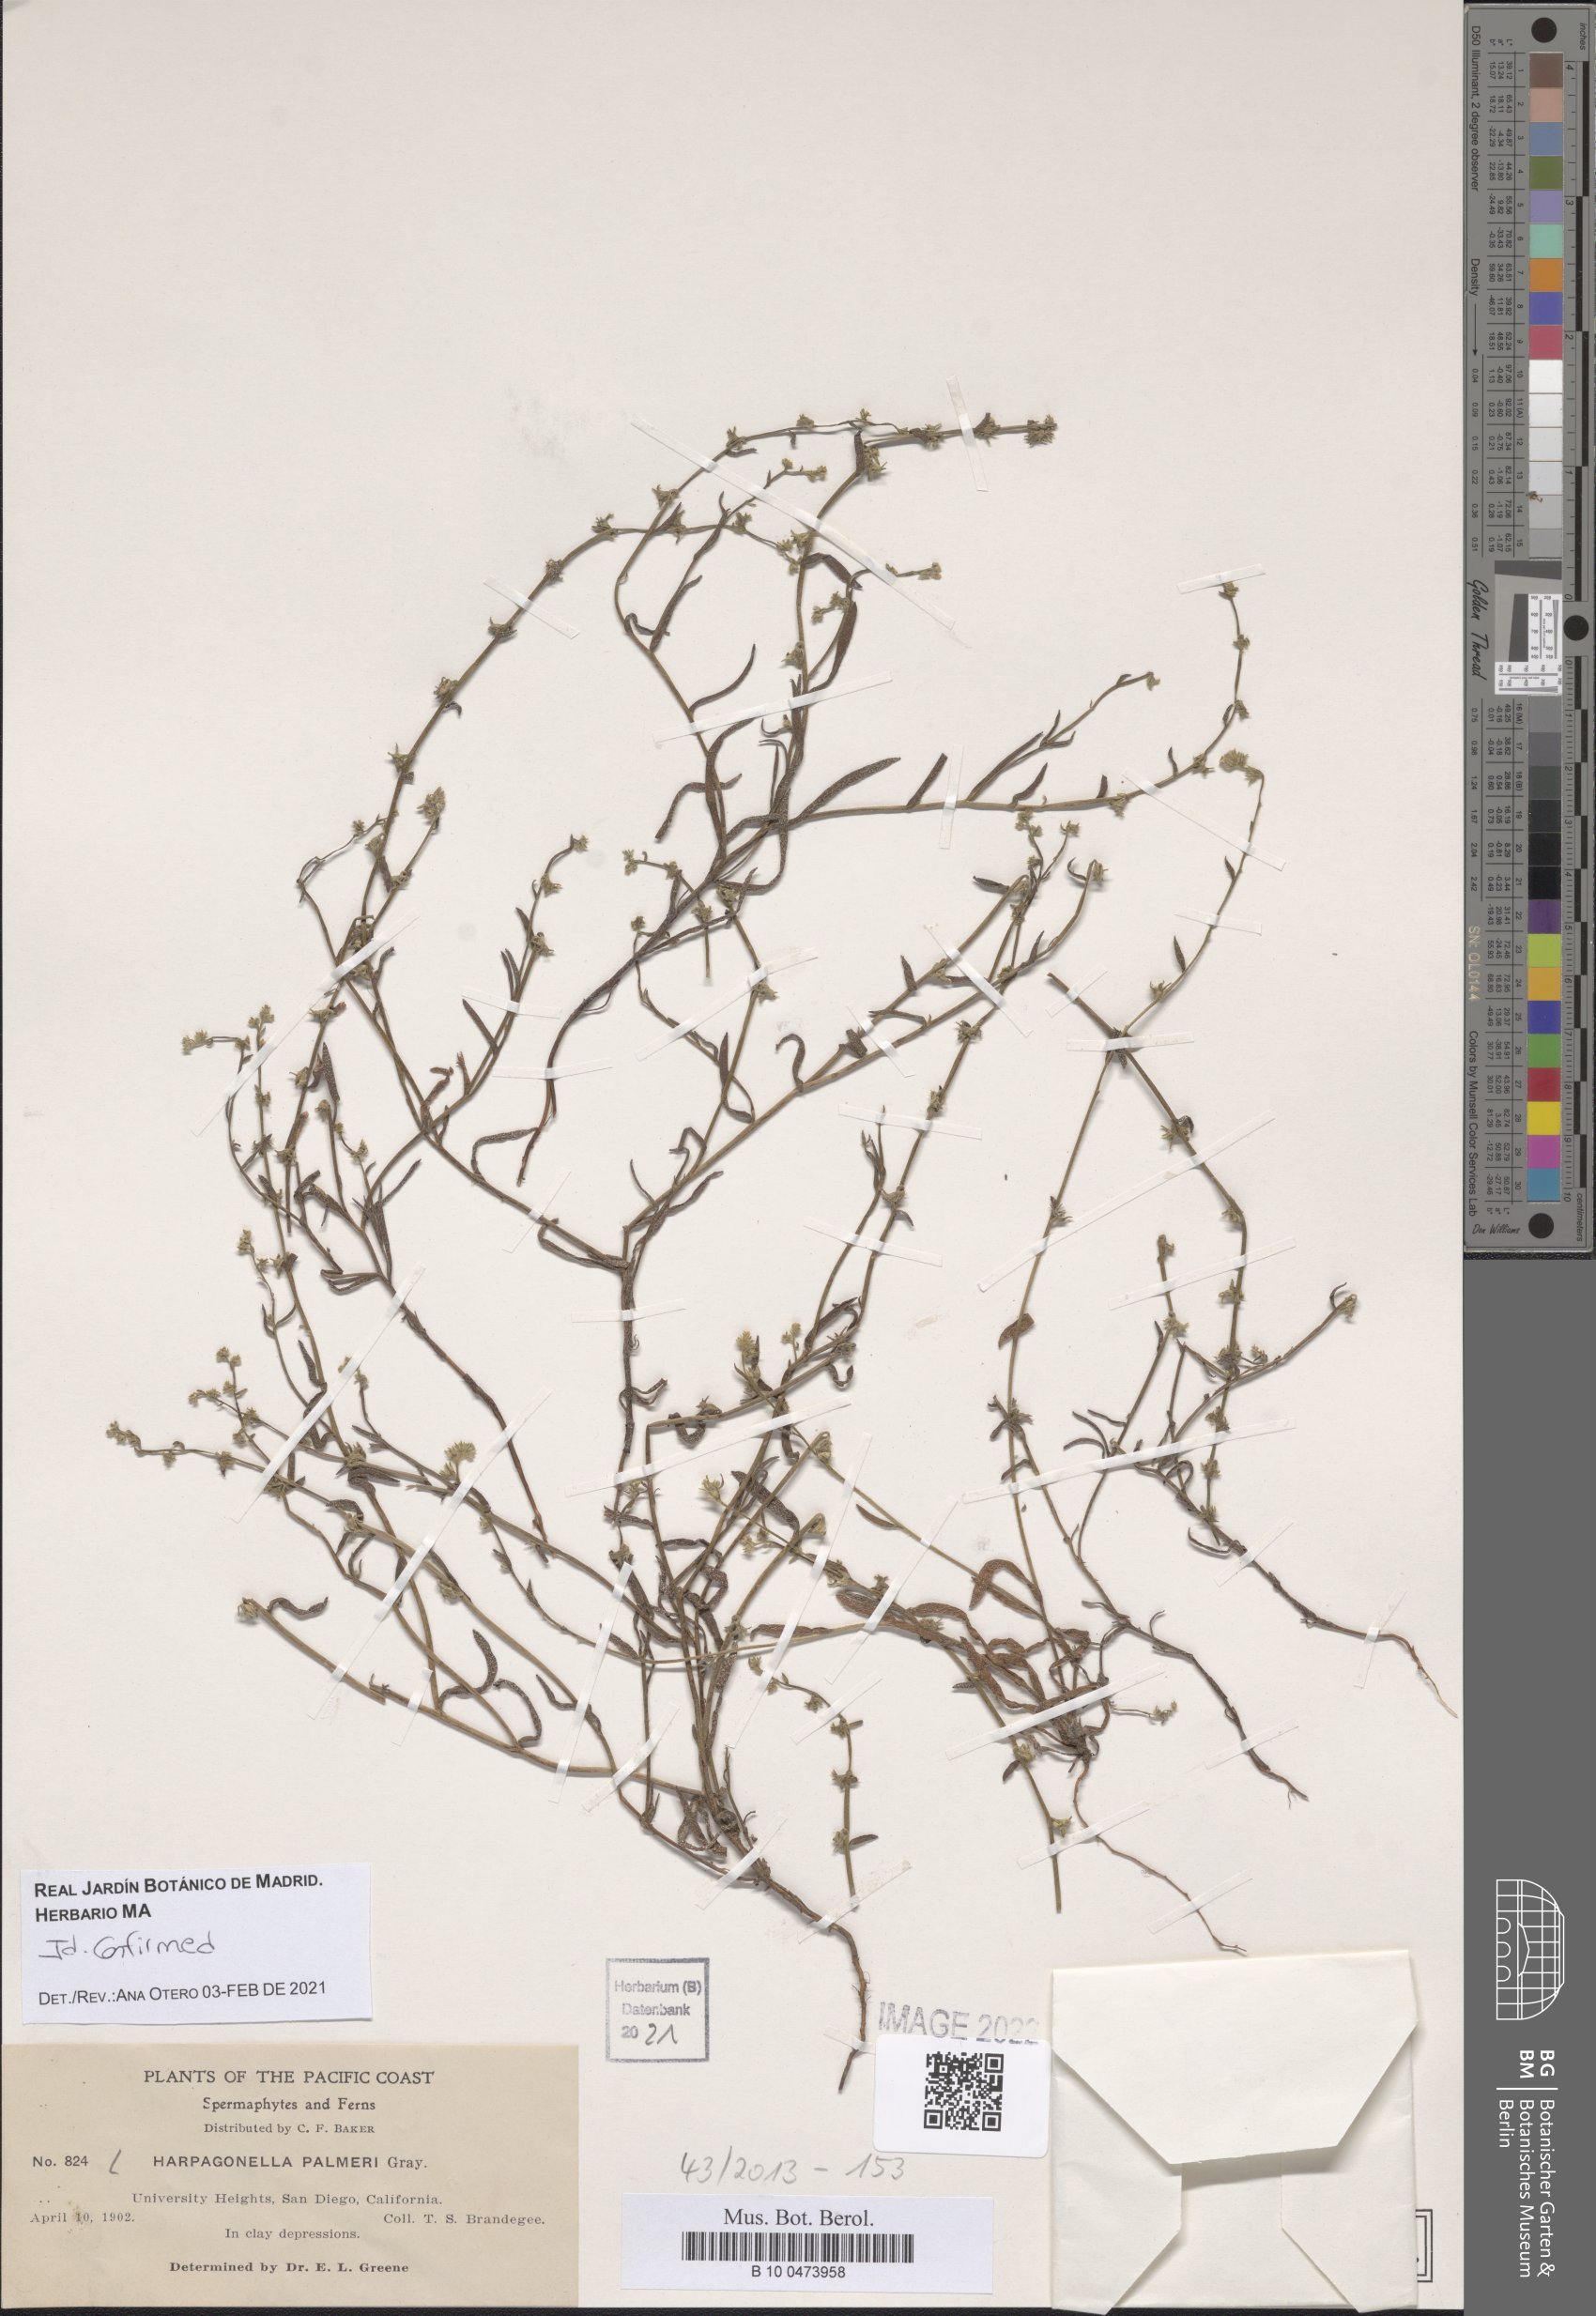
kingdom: Plantae
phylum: Tracheophyta
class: Magnoliopsida
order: Boraginales
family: Boraginaceae
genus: Harpagonella
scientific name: Harpagonella palmeri
